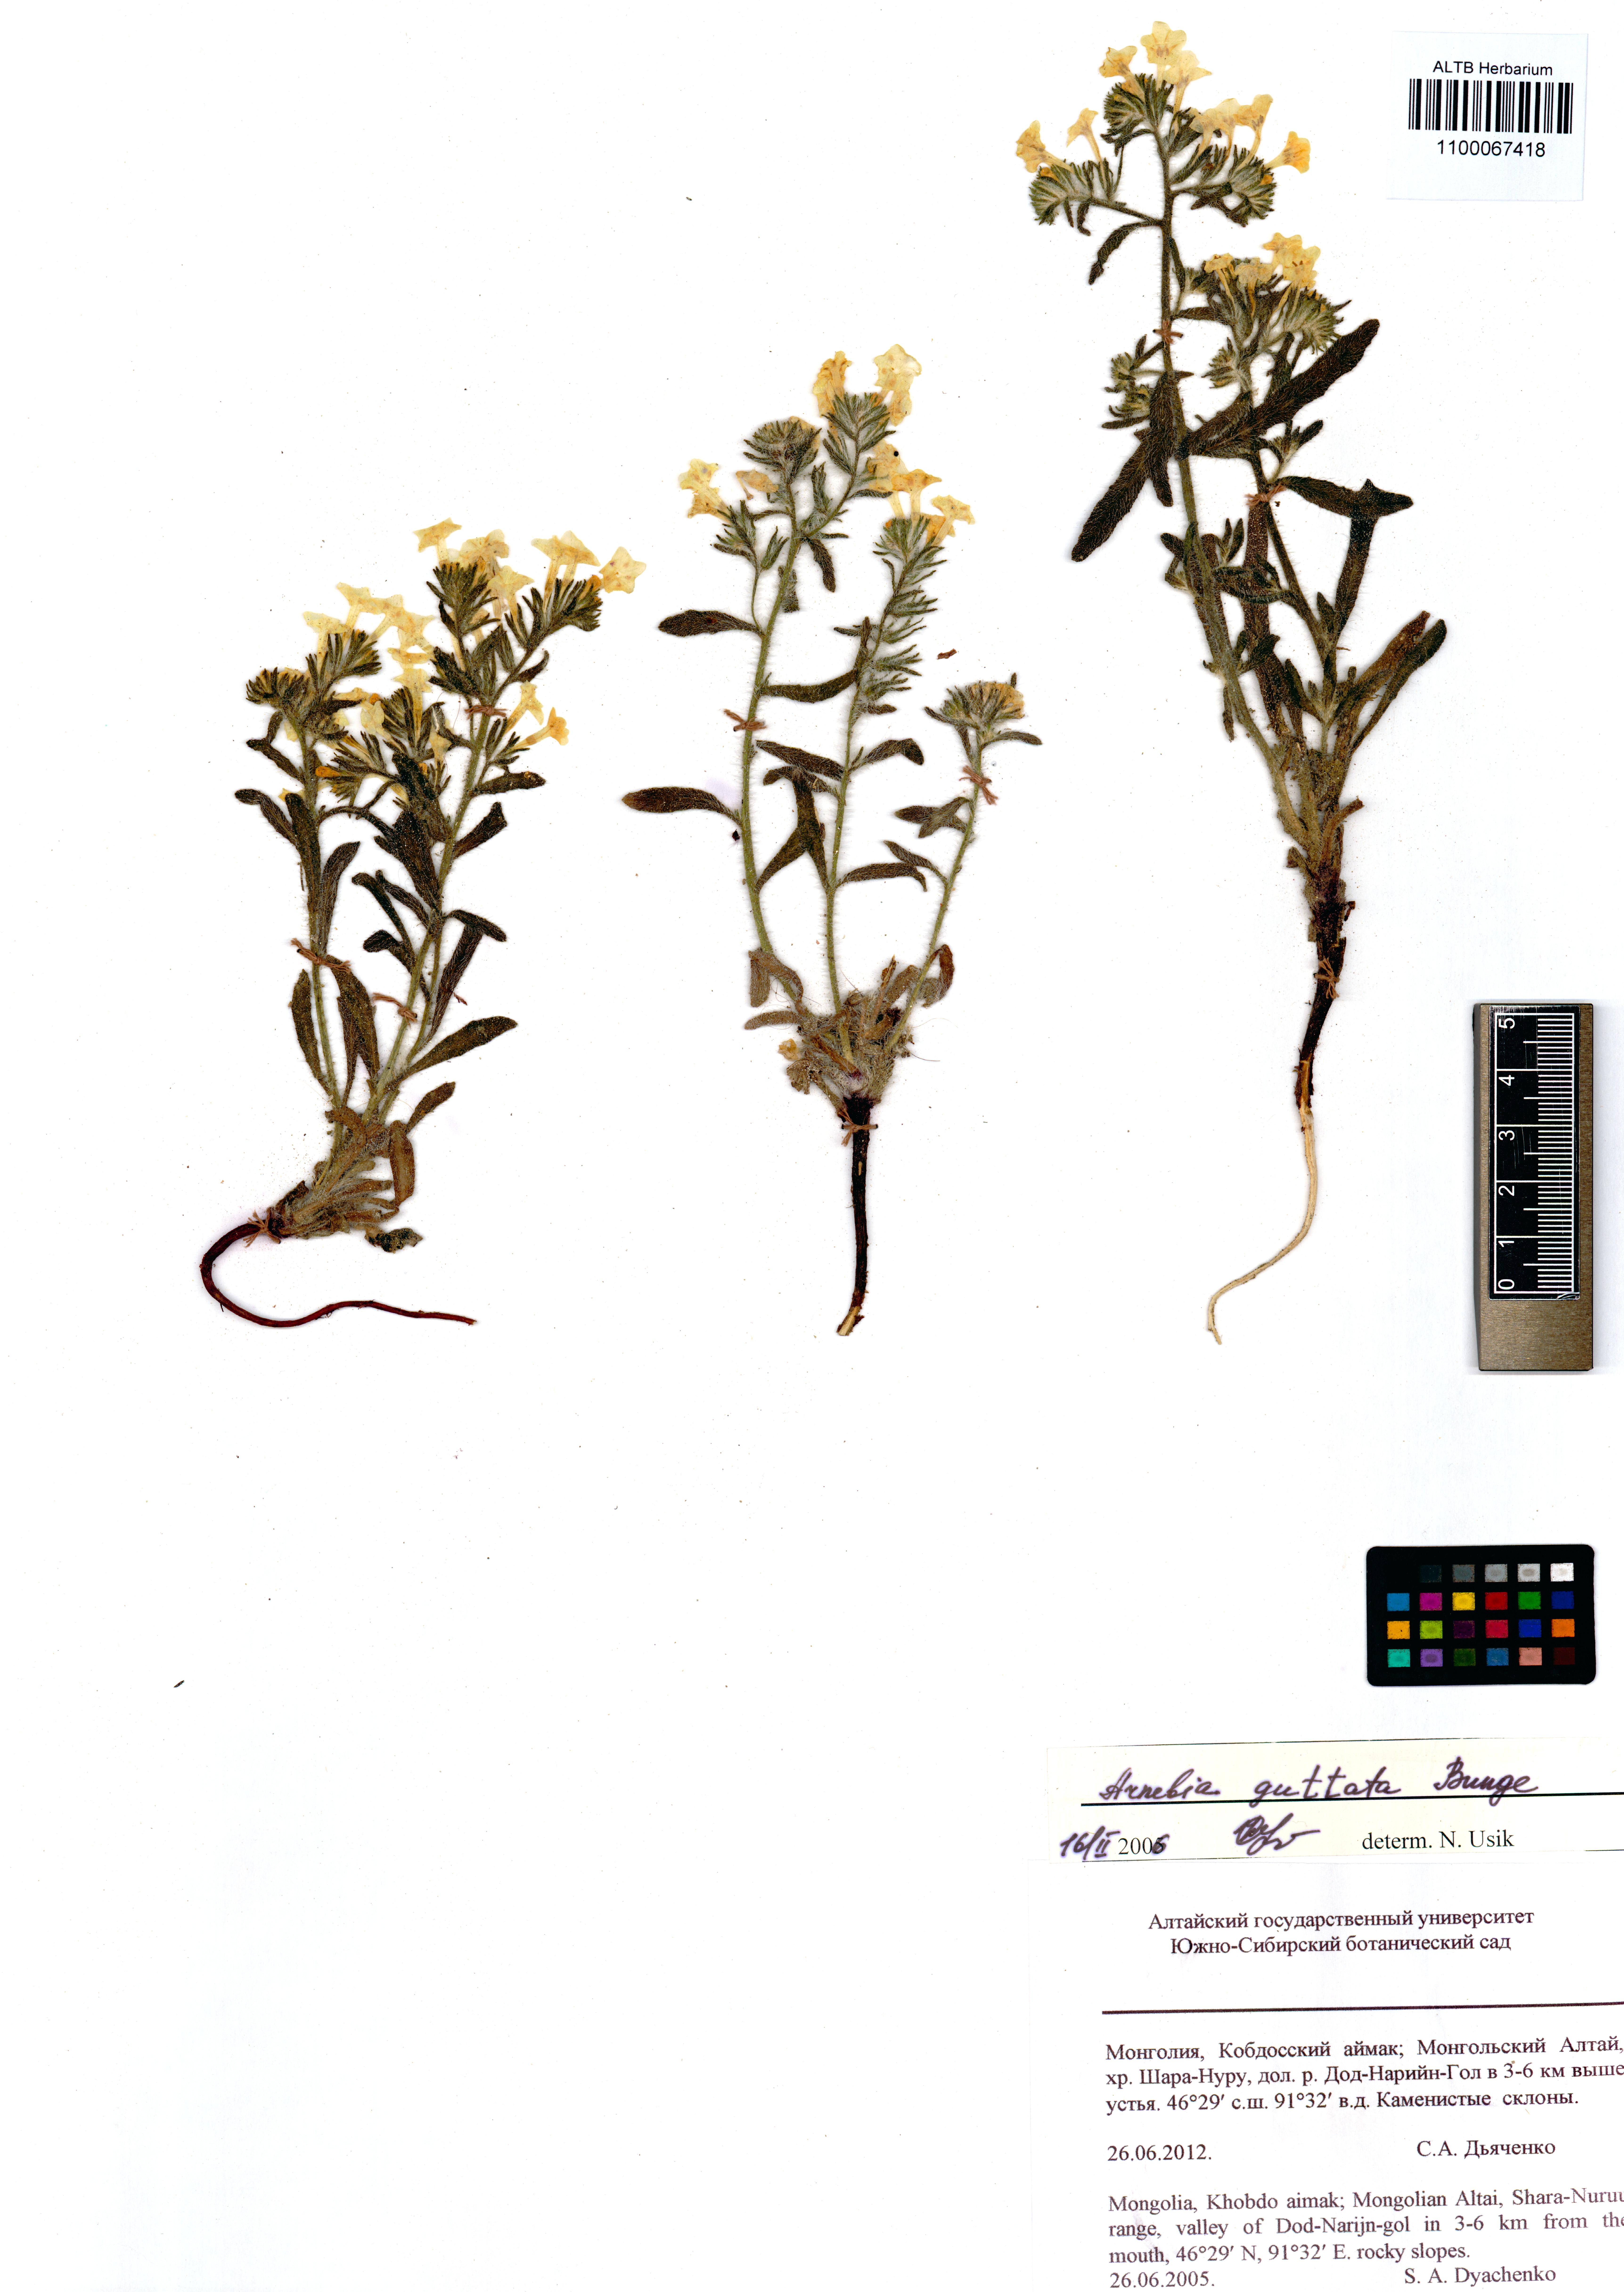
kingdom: Plantae
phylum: Tracheophyta
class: Magnoliopsida
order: Boraginales
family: Boraginaceae
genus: Arnebia
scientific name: Arnebia guttata
